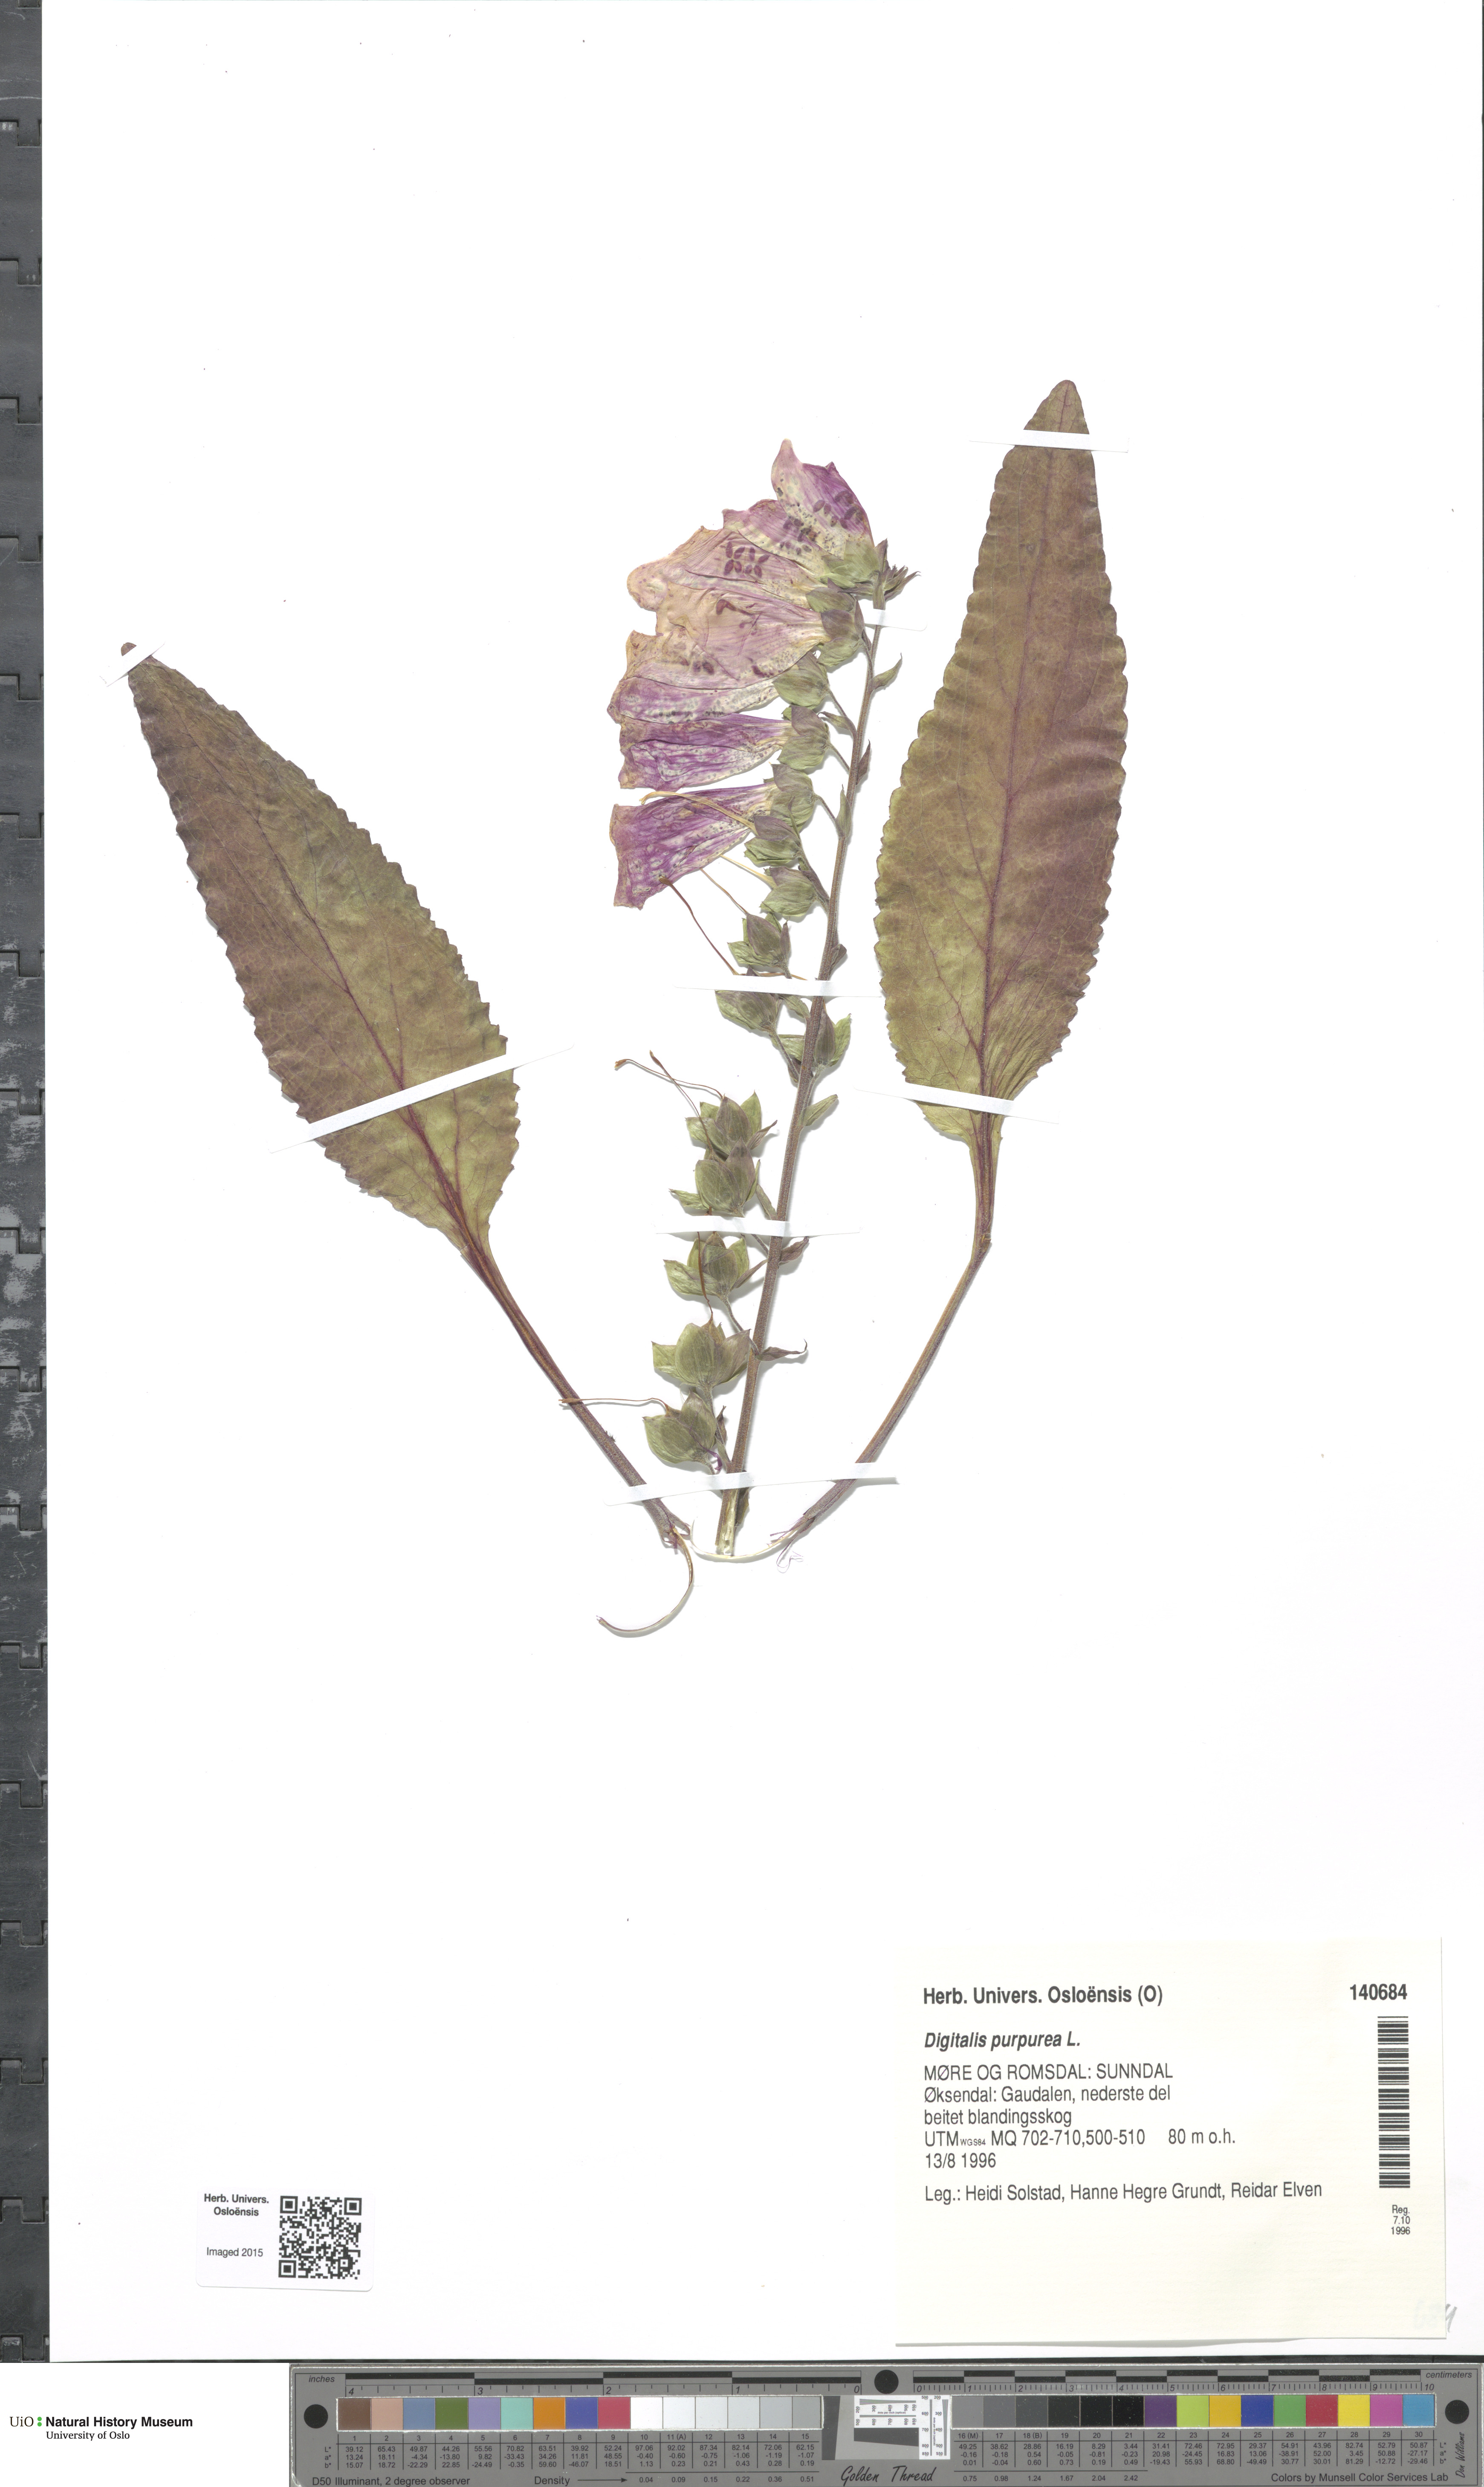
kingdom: Plantae
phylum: Tracheophyta
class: Magnoliopsida
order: Lamiales
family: Plantaginaceae
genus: Digitalis
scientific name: Digitalis purpurea
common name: Foxglove
